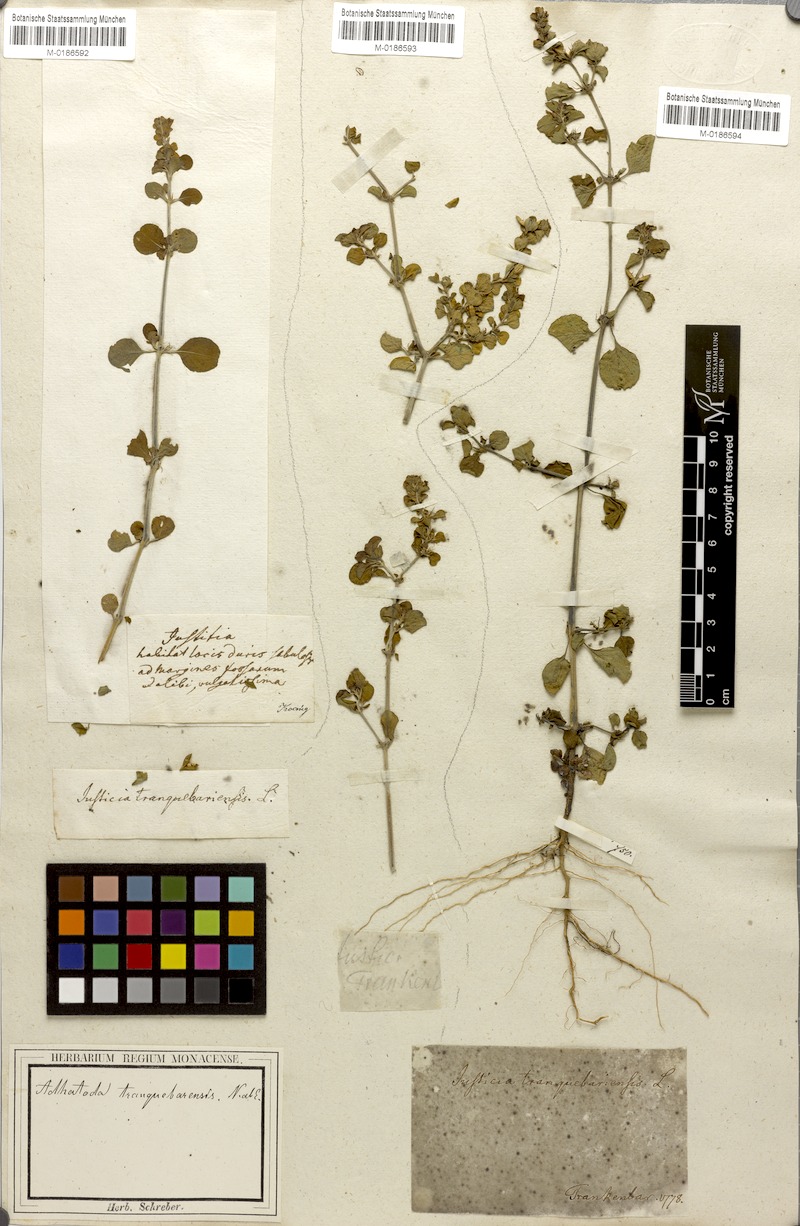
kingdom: Plantae
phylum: Tracheophyta
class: Magnoliopsida
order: Lamiales
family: Acanthaceae
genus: Justicia
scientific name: Justicia tranquebariensis
